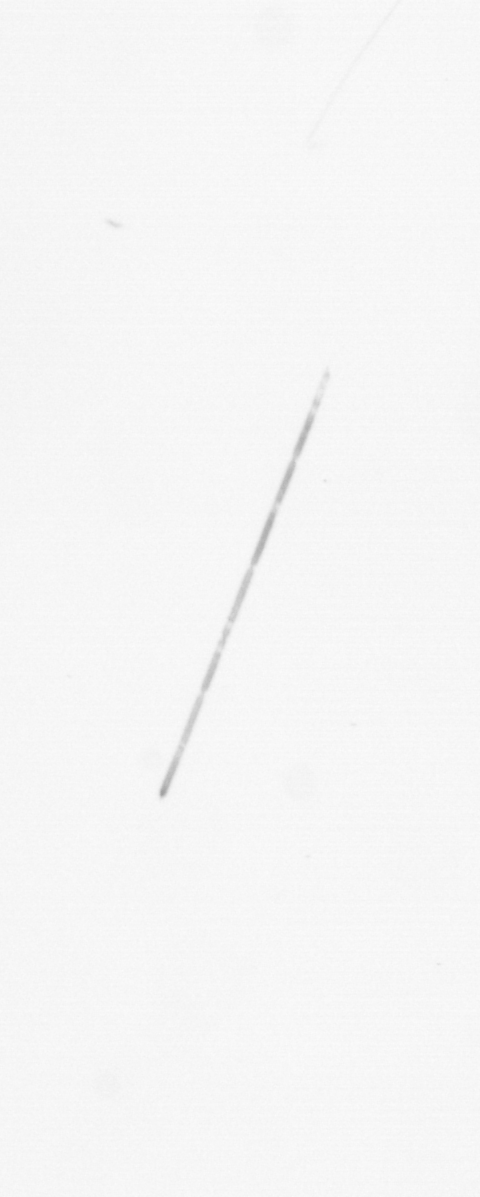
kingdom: Chromista
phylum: Ochrophyta
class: Bacillariophyceae
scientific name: Bacillariophyceae
